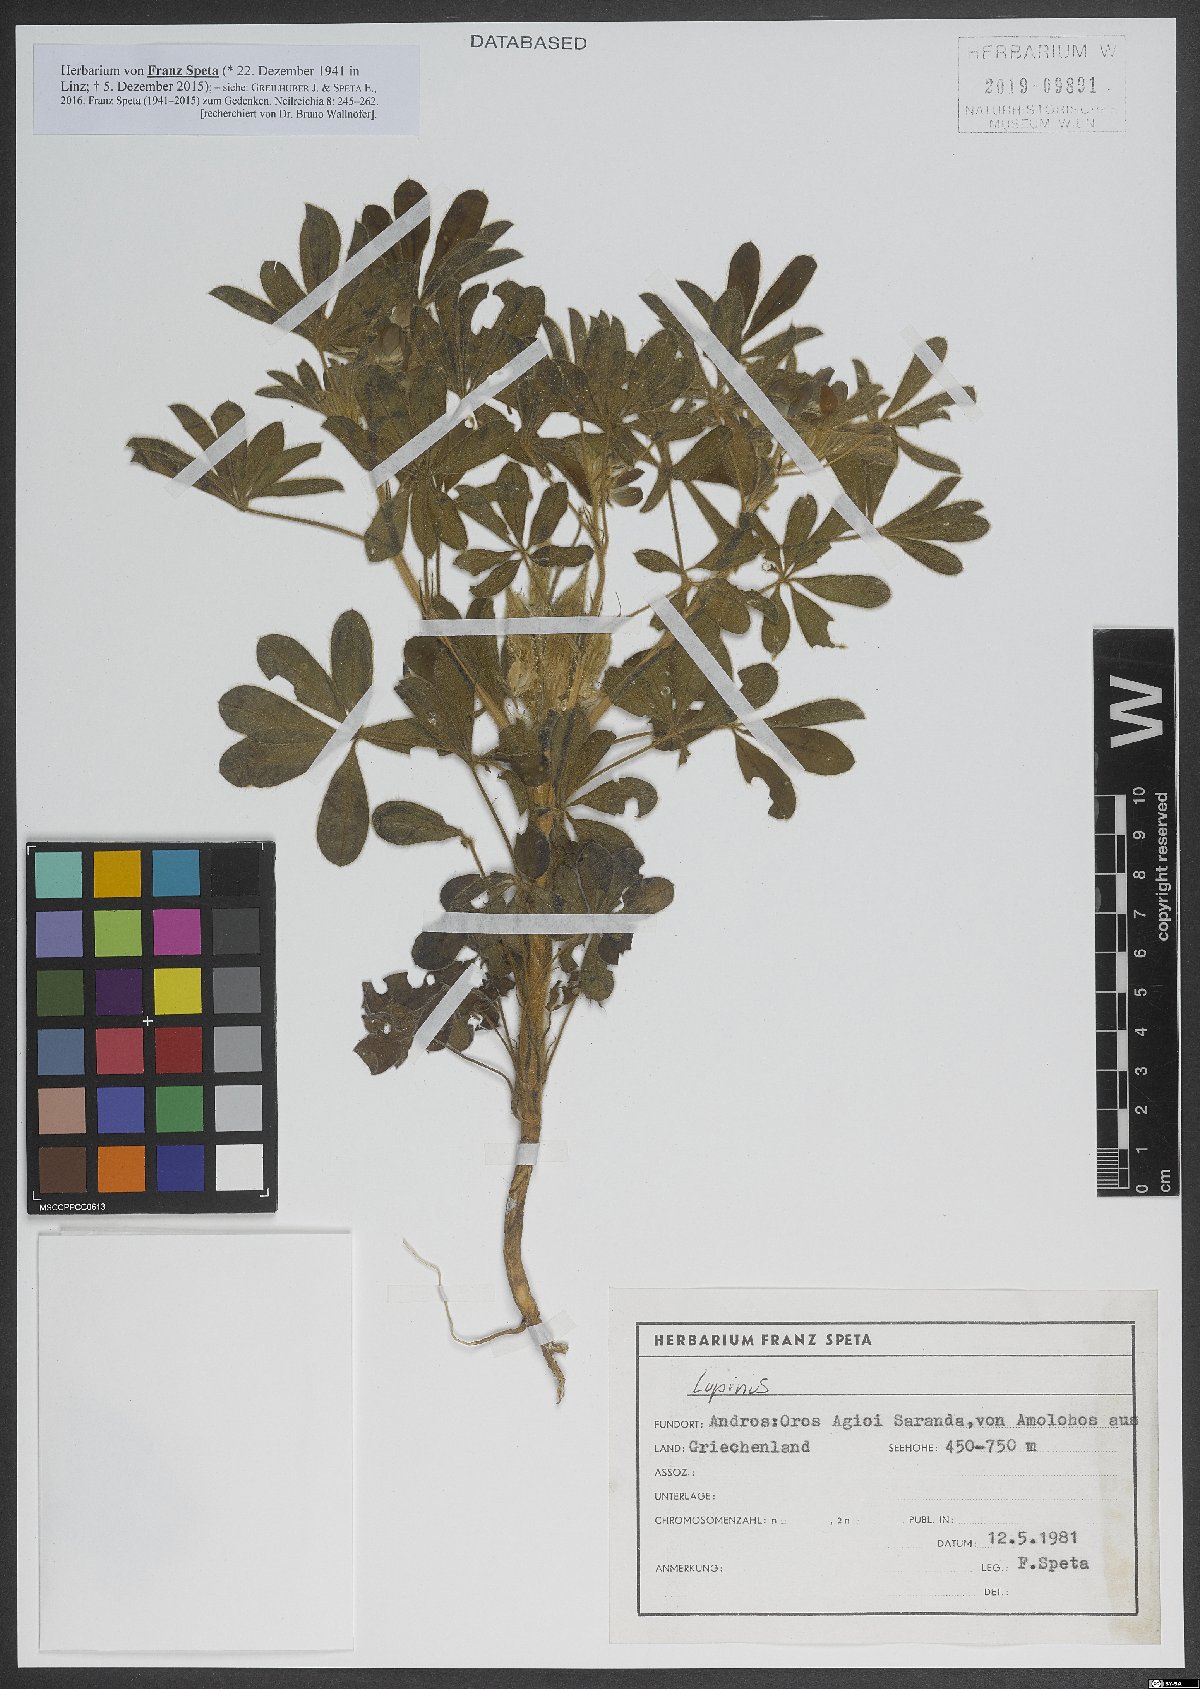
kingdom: Plantae
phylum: Tracheophyta
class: Magnoliopsida
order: Fabales
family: Fabaceae
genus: Lupinus
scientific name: Lupinus
